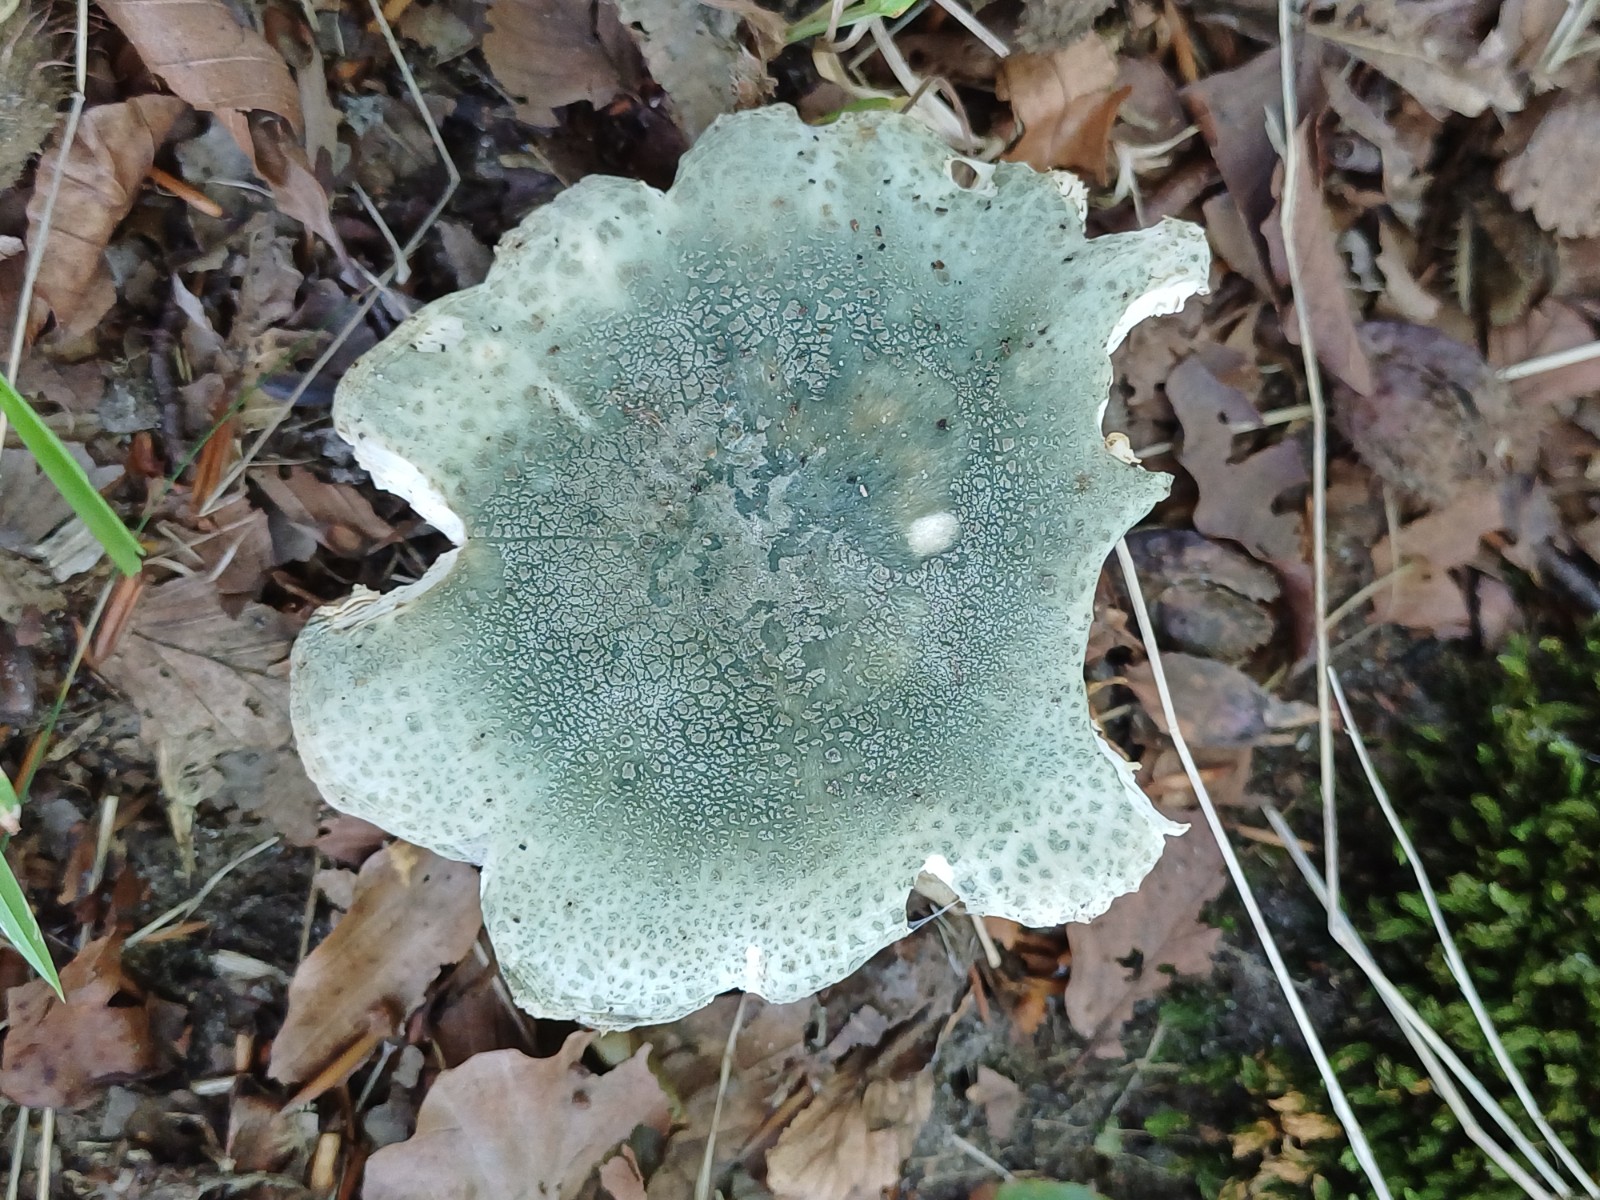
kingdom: Fungi
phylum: Basidiomycota
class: Agaricomycetes
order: Russulales
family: Russulaceae
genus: Russula
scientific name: Russula virescens
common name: spanskgrøn skørhat
